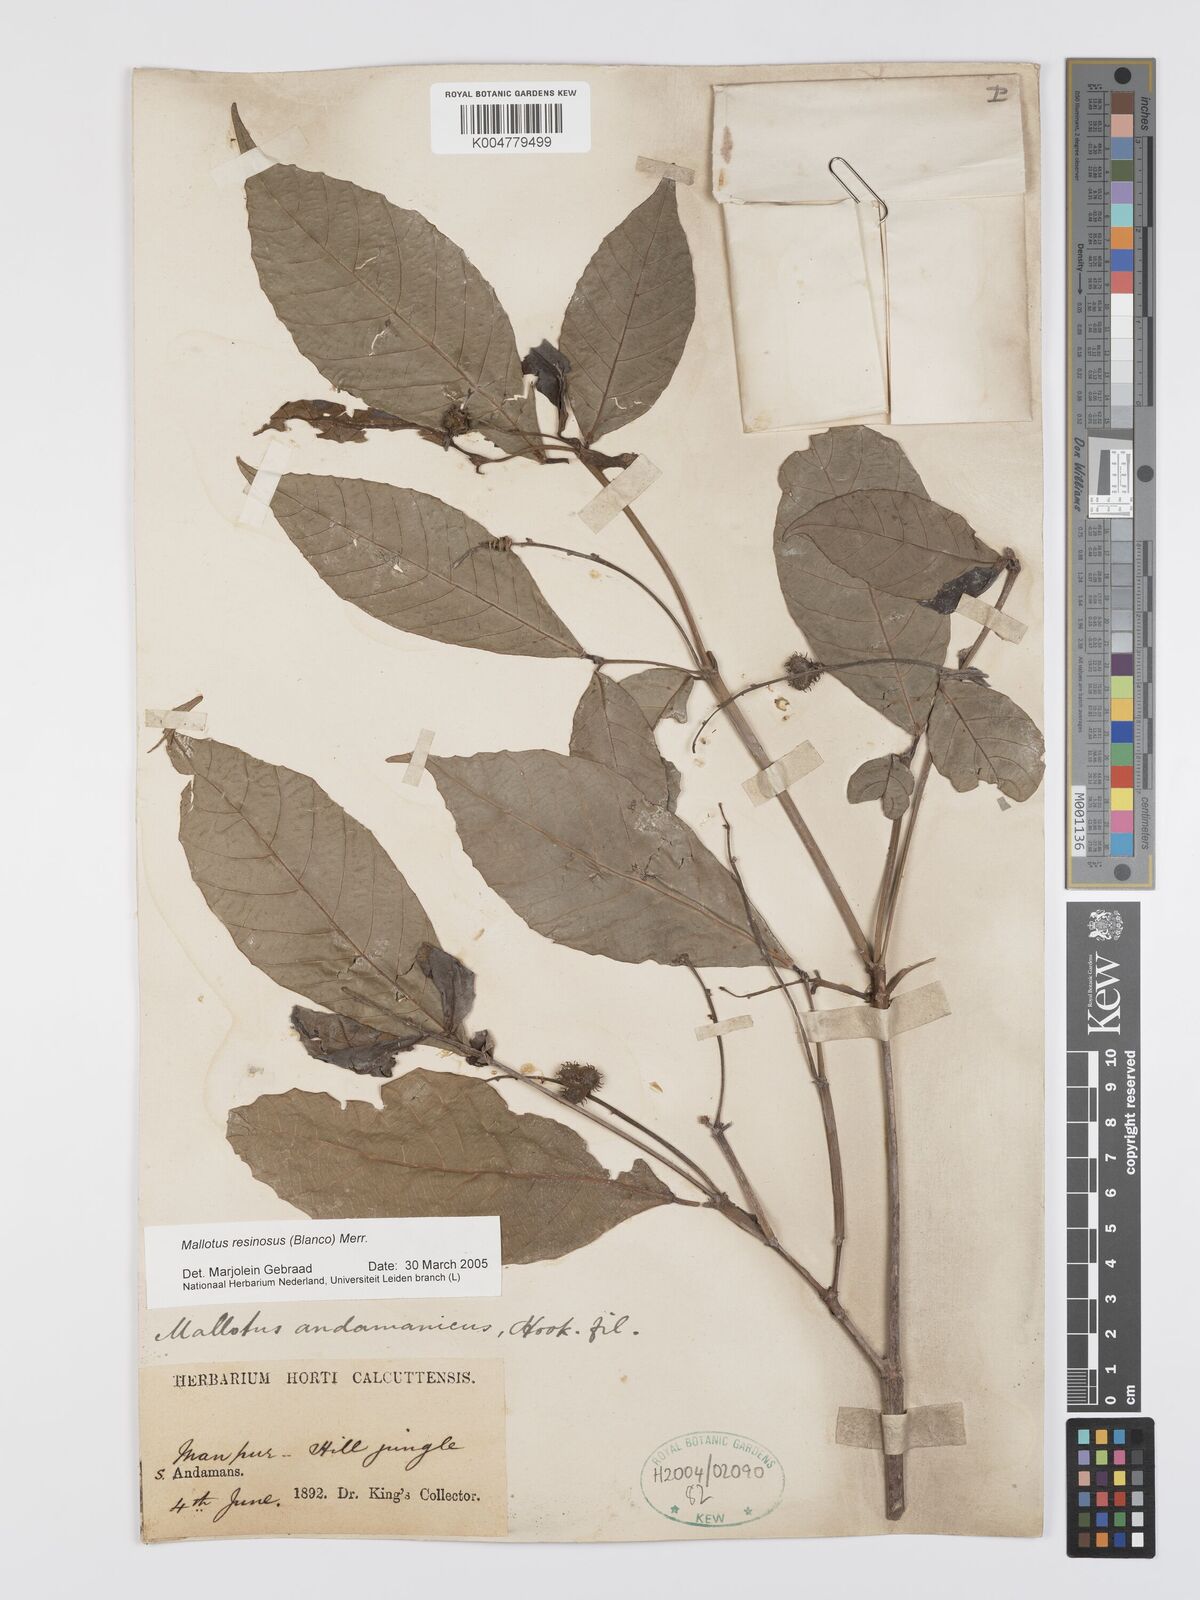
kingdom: Plantae
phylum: Tracheophyta
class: Magnoliopsida
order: Malpighiales
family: Euphorbiaceae
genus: Mallotus
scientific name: Mallotus resinosus
